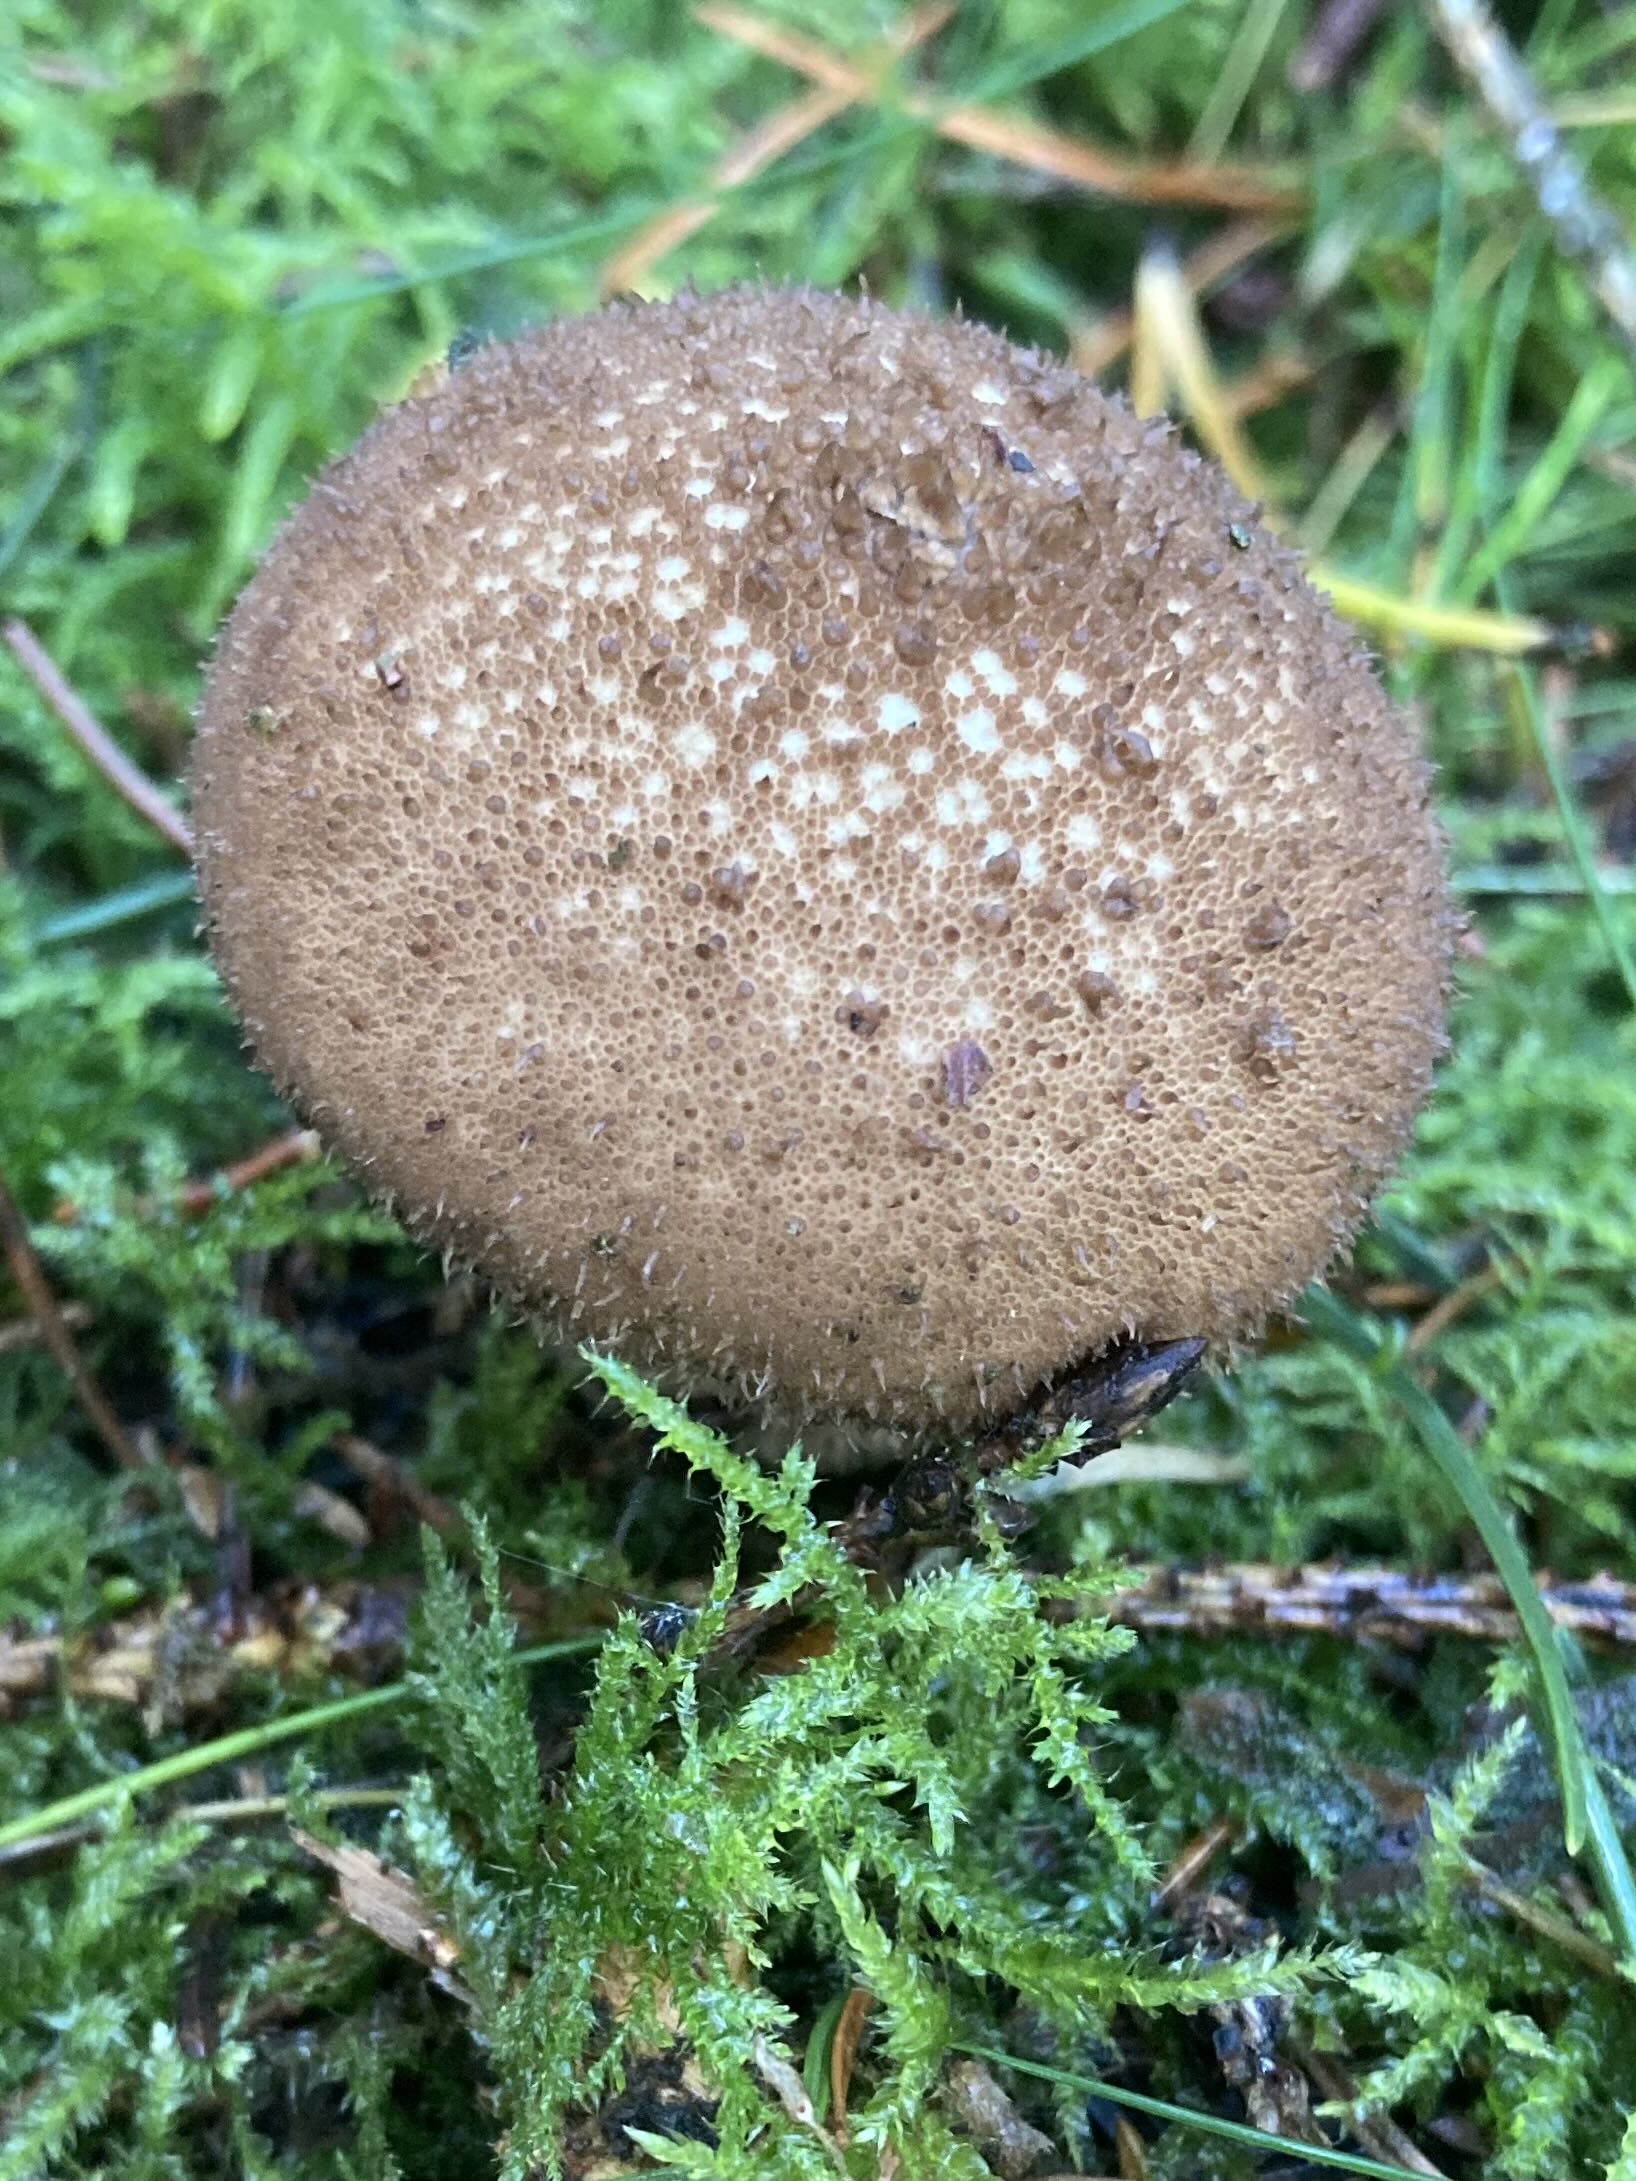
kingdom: Fungi
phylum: Basidiomycota
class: Agaricomycetes
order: Agaricales
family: Lycoperdaceae
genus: Lycoperdon
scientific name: Lycoperdon nigrescens
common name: sortagtig støvbold
